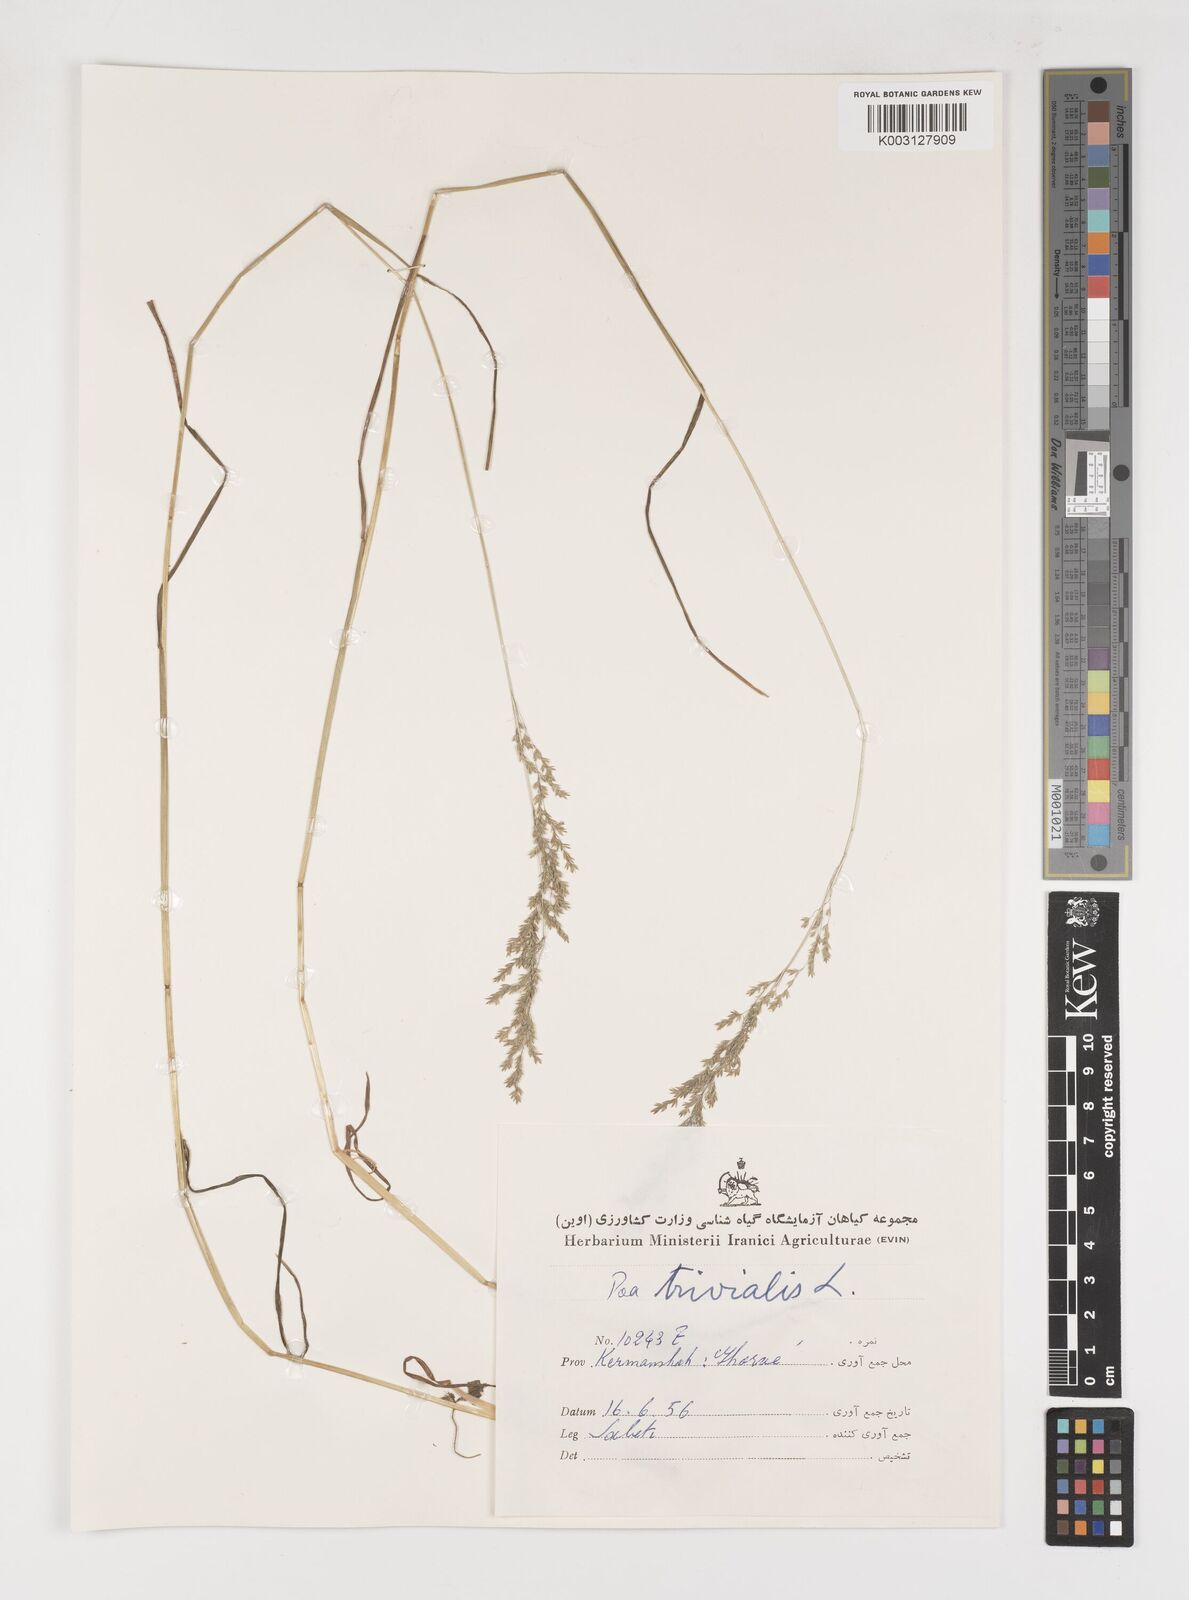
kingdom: Plantae
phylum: Tracheophyta
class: Liliopsida
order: Poales
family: Poaceae
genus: Poa
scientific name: Poa trivialis
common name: Rough bluegrass
